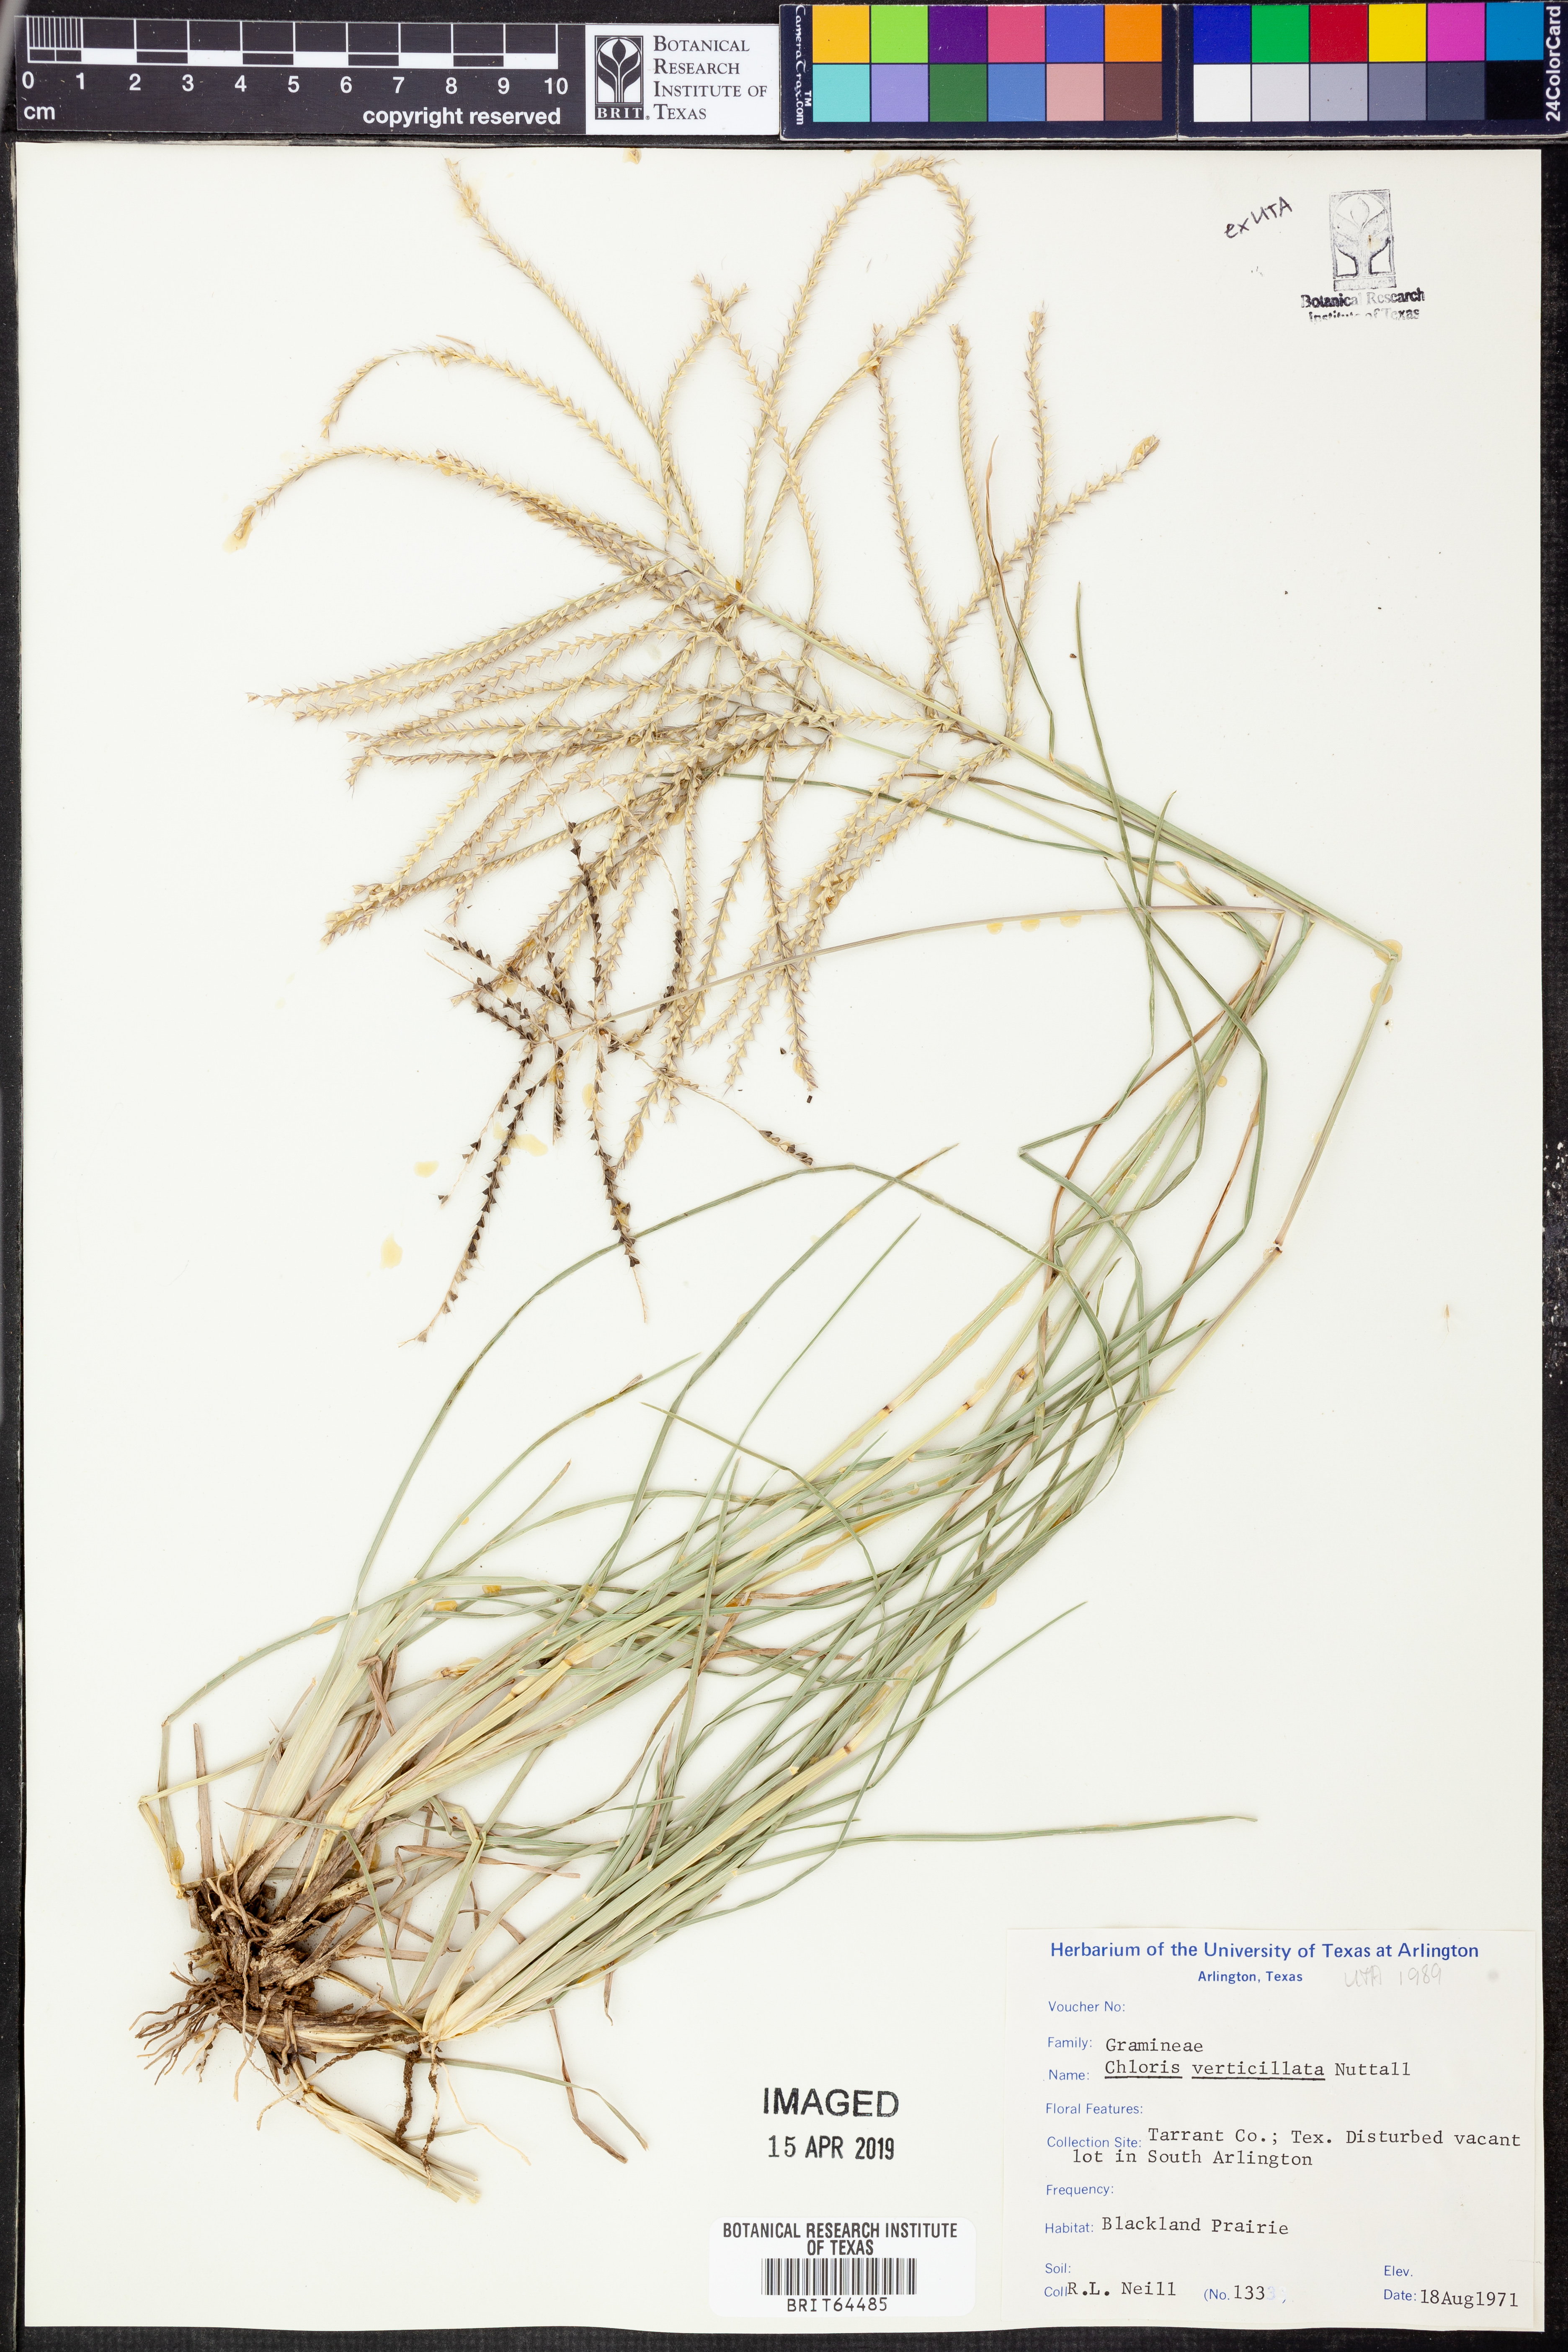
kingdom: Plantae
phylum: Tracheophyta
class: Liliopsida
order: Poales
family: Poaceae
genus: Chloris
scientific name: Chloris verticillata
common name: Tumble windmill grass
